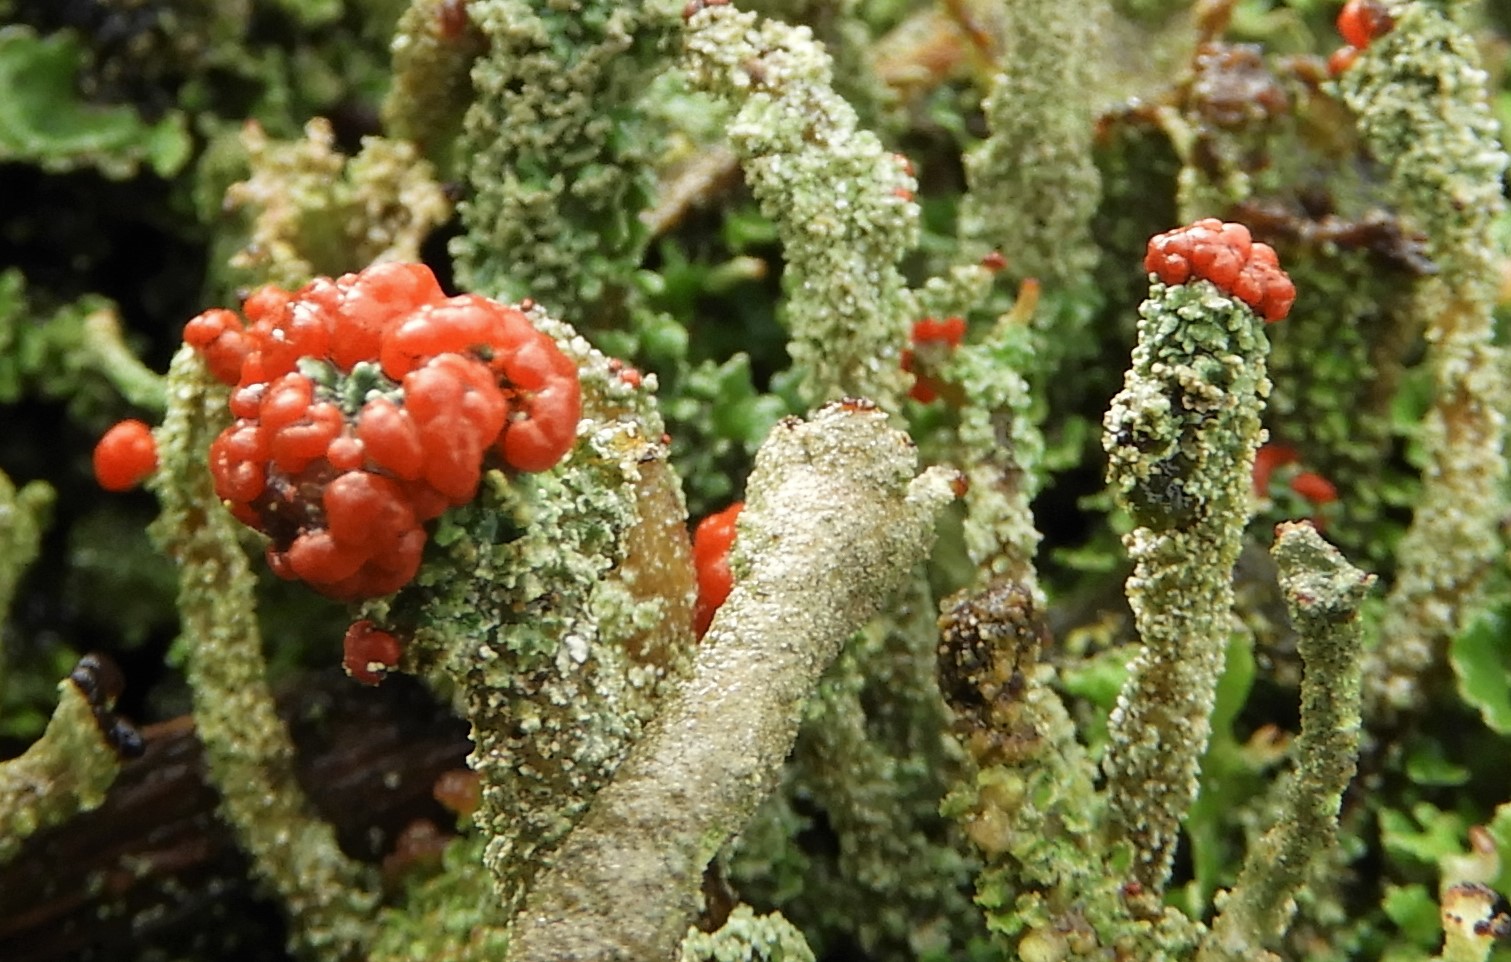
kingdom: Fungi
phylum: Ascomycota
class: Lecanoromycetes
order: Lecanorales
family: Cladoniaceae
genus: Cladonia
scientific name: Cladonia floerkeana
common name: lakrød bægerlav
